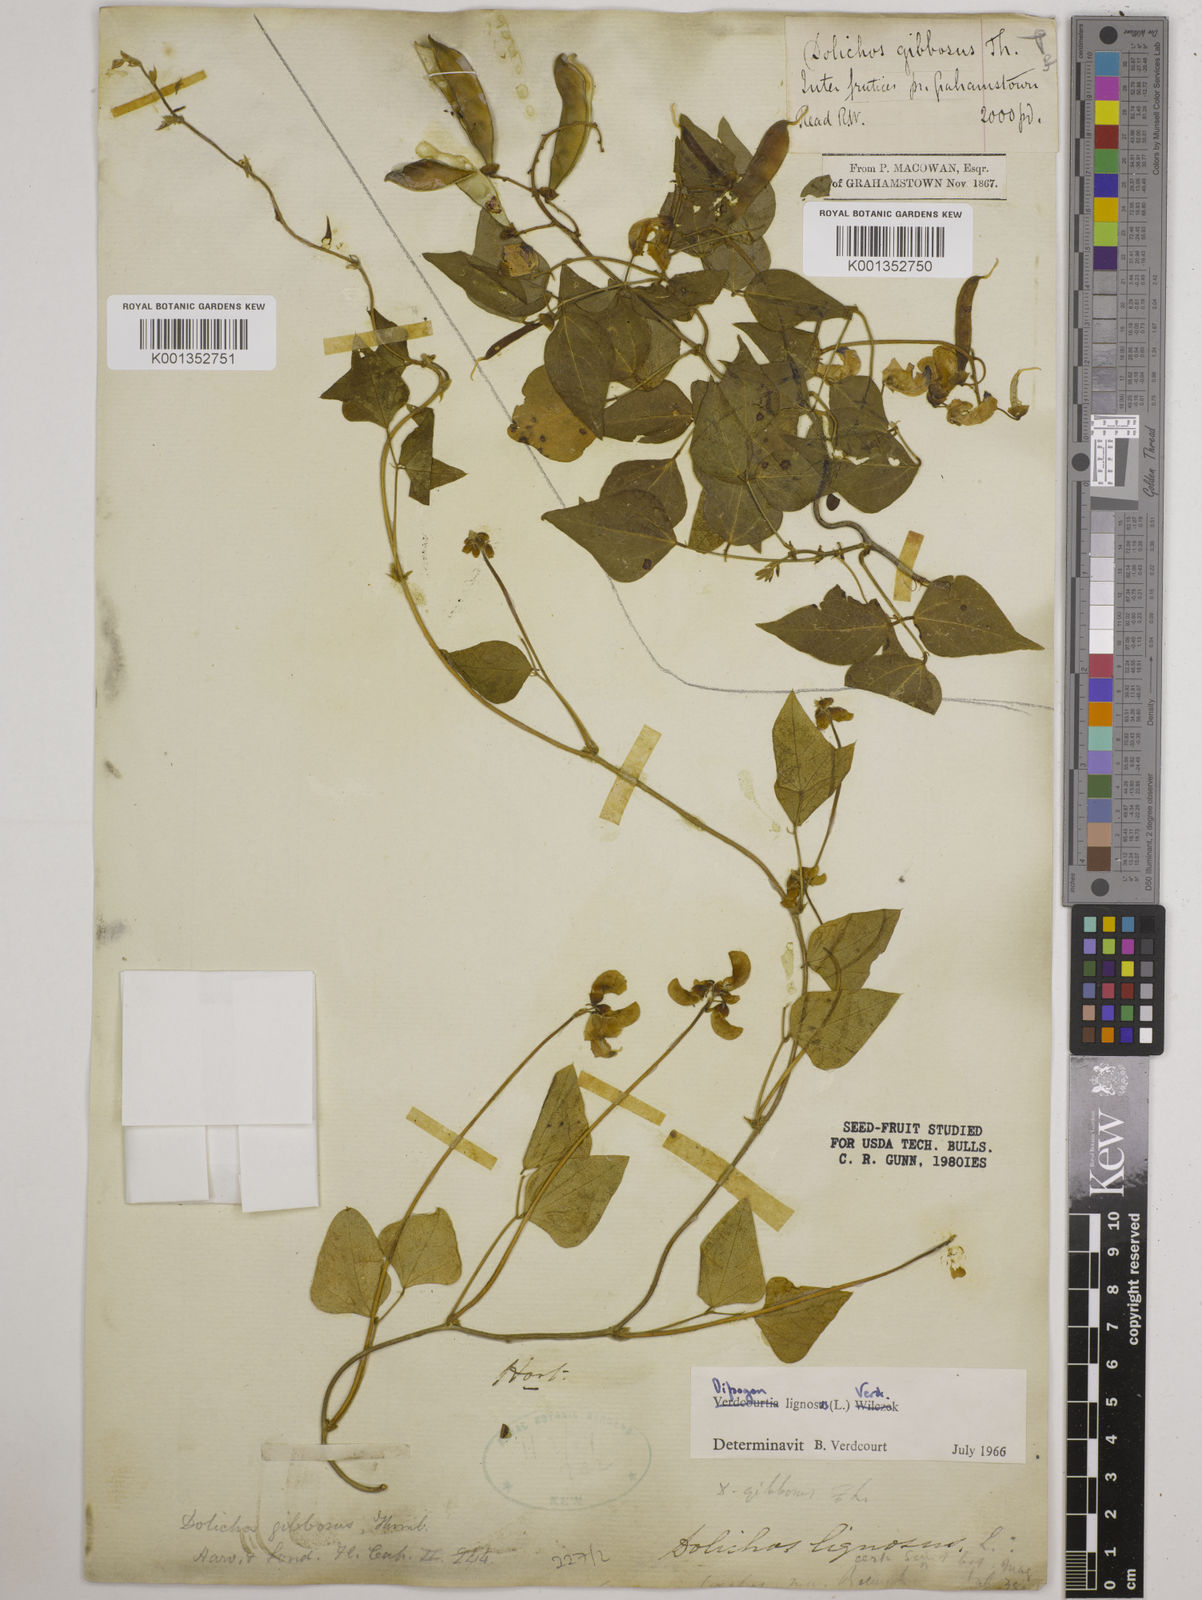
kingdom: Plantae
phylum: Tracheophyta
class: Magnoliopsida
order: Fabales
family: Fabaceae
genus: Dipogon
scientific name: Dipogon lignosus
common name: Okie bean
